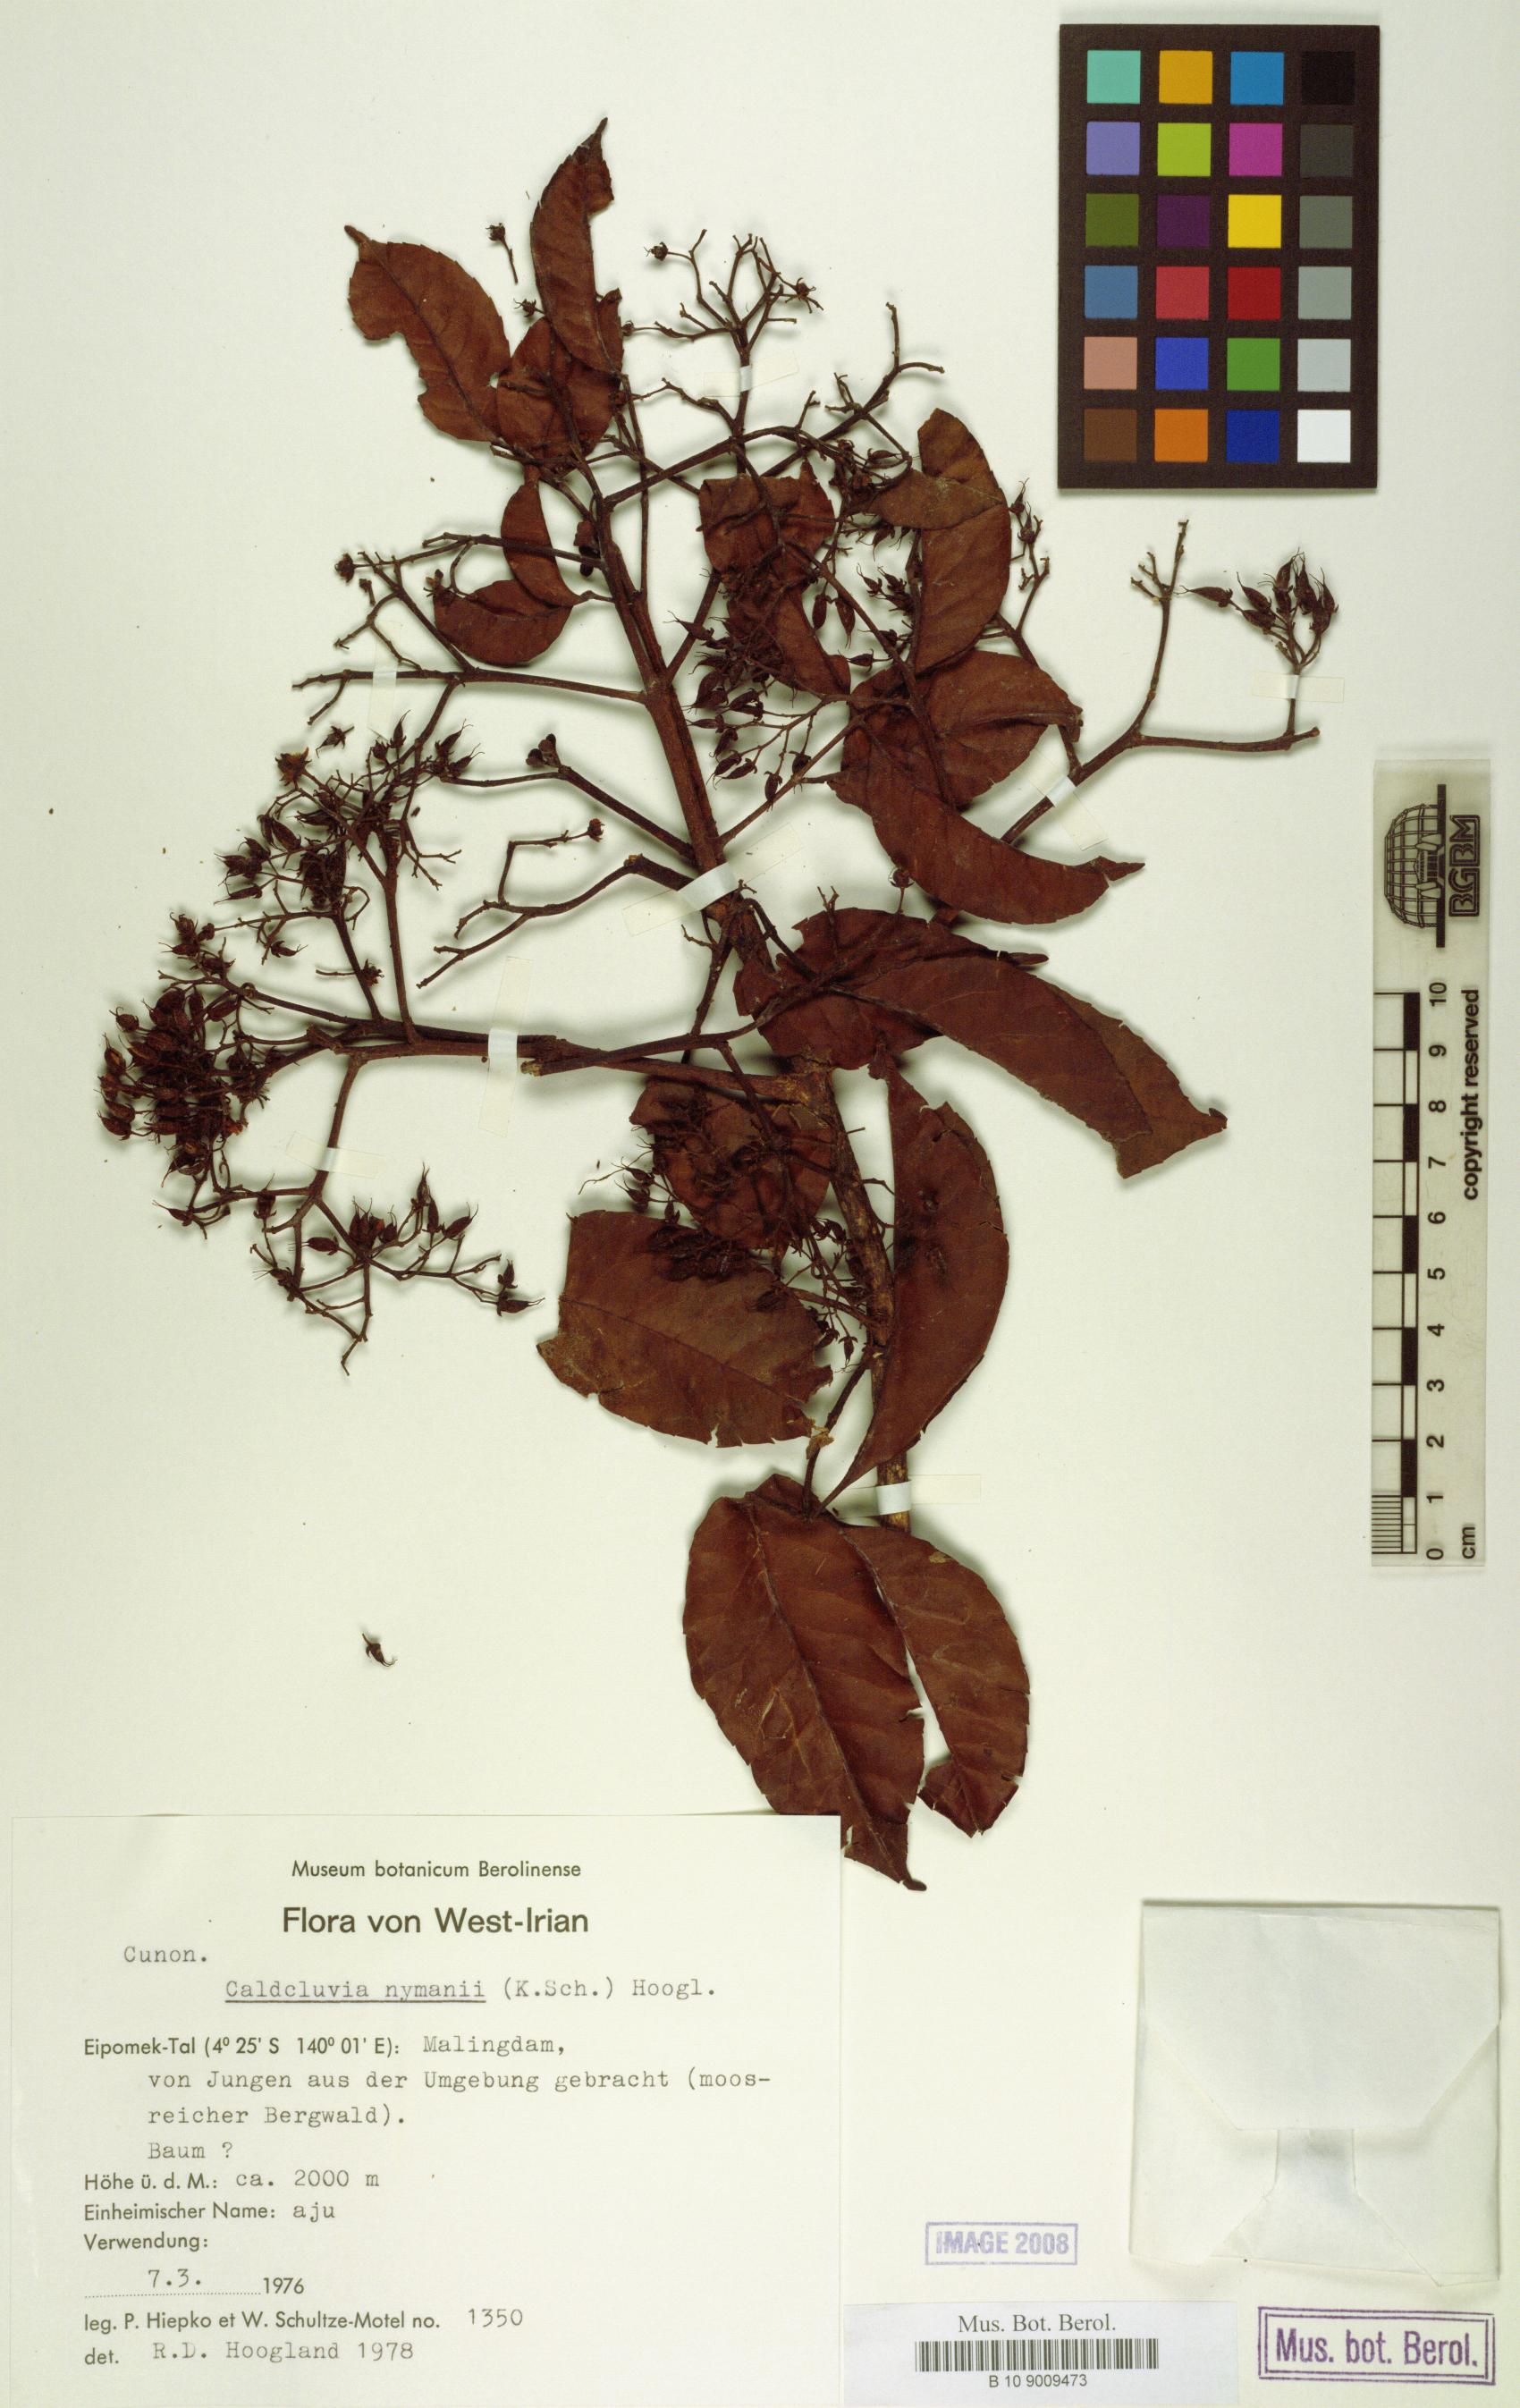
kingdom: Plantae
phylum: Tracheophyta
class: Magnoliopsida
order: Oxalidales
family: Cunoniaceae
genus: Opocunonia
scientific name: Opocunonia nymanii
